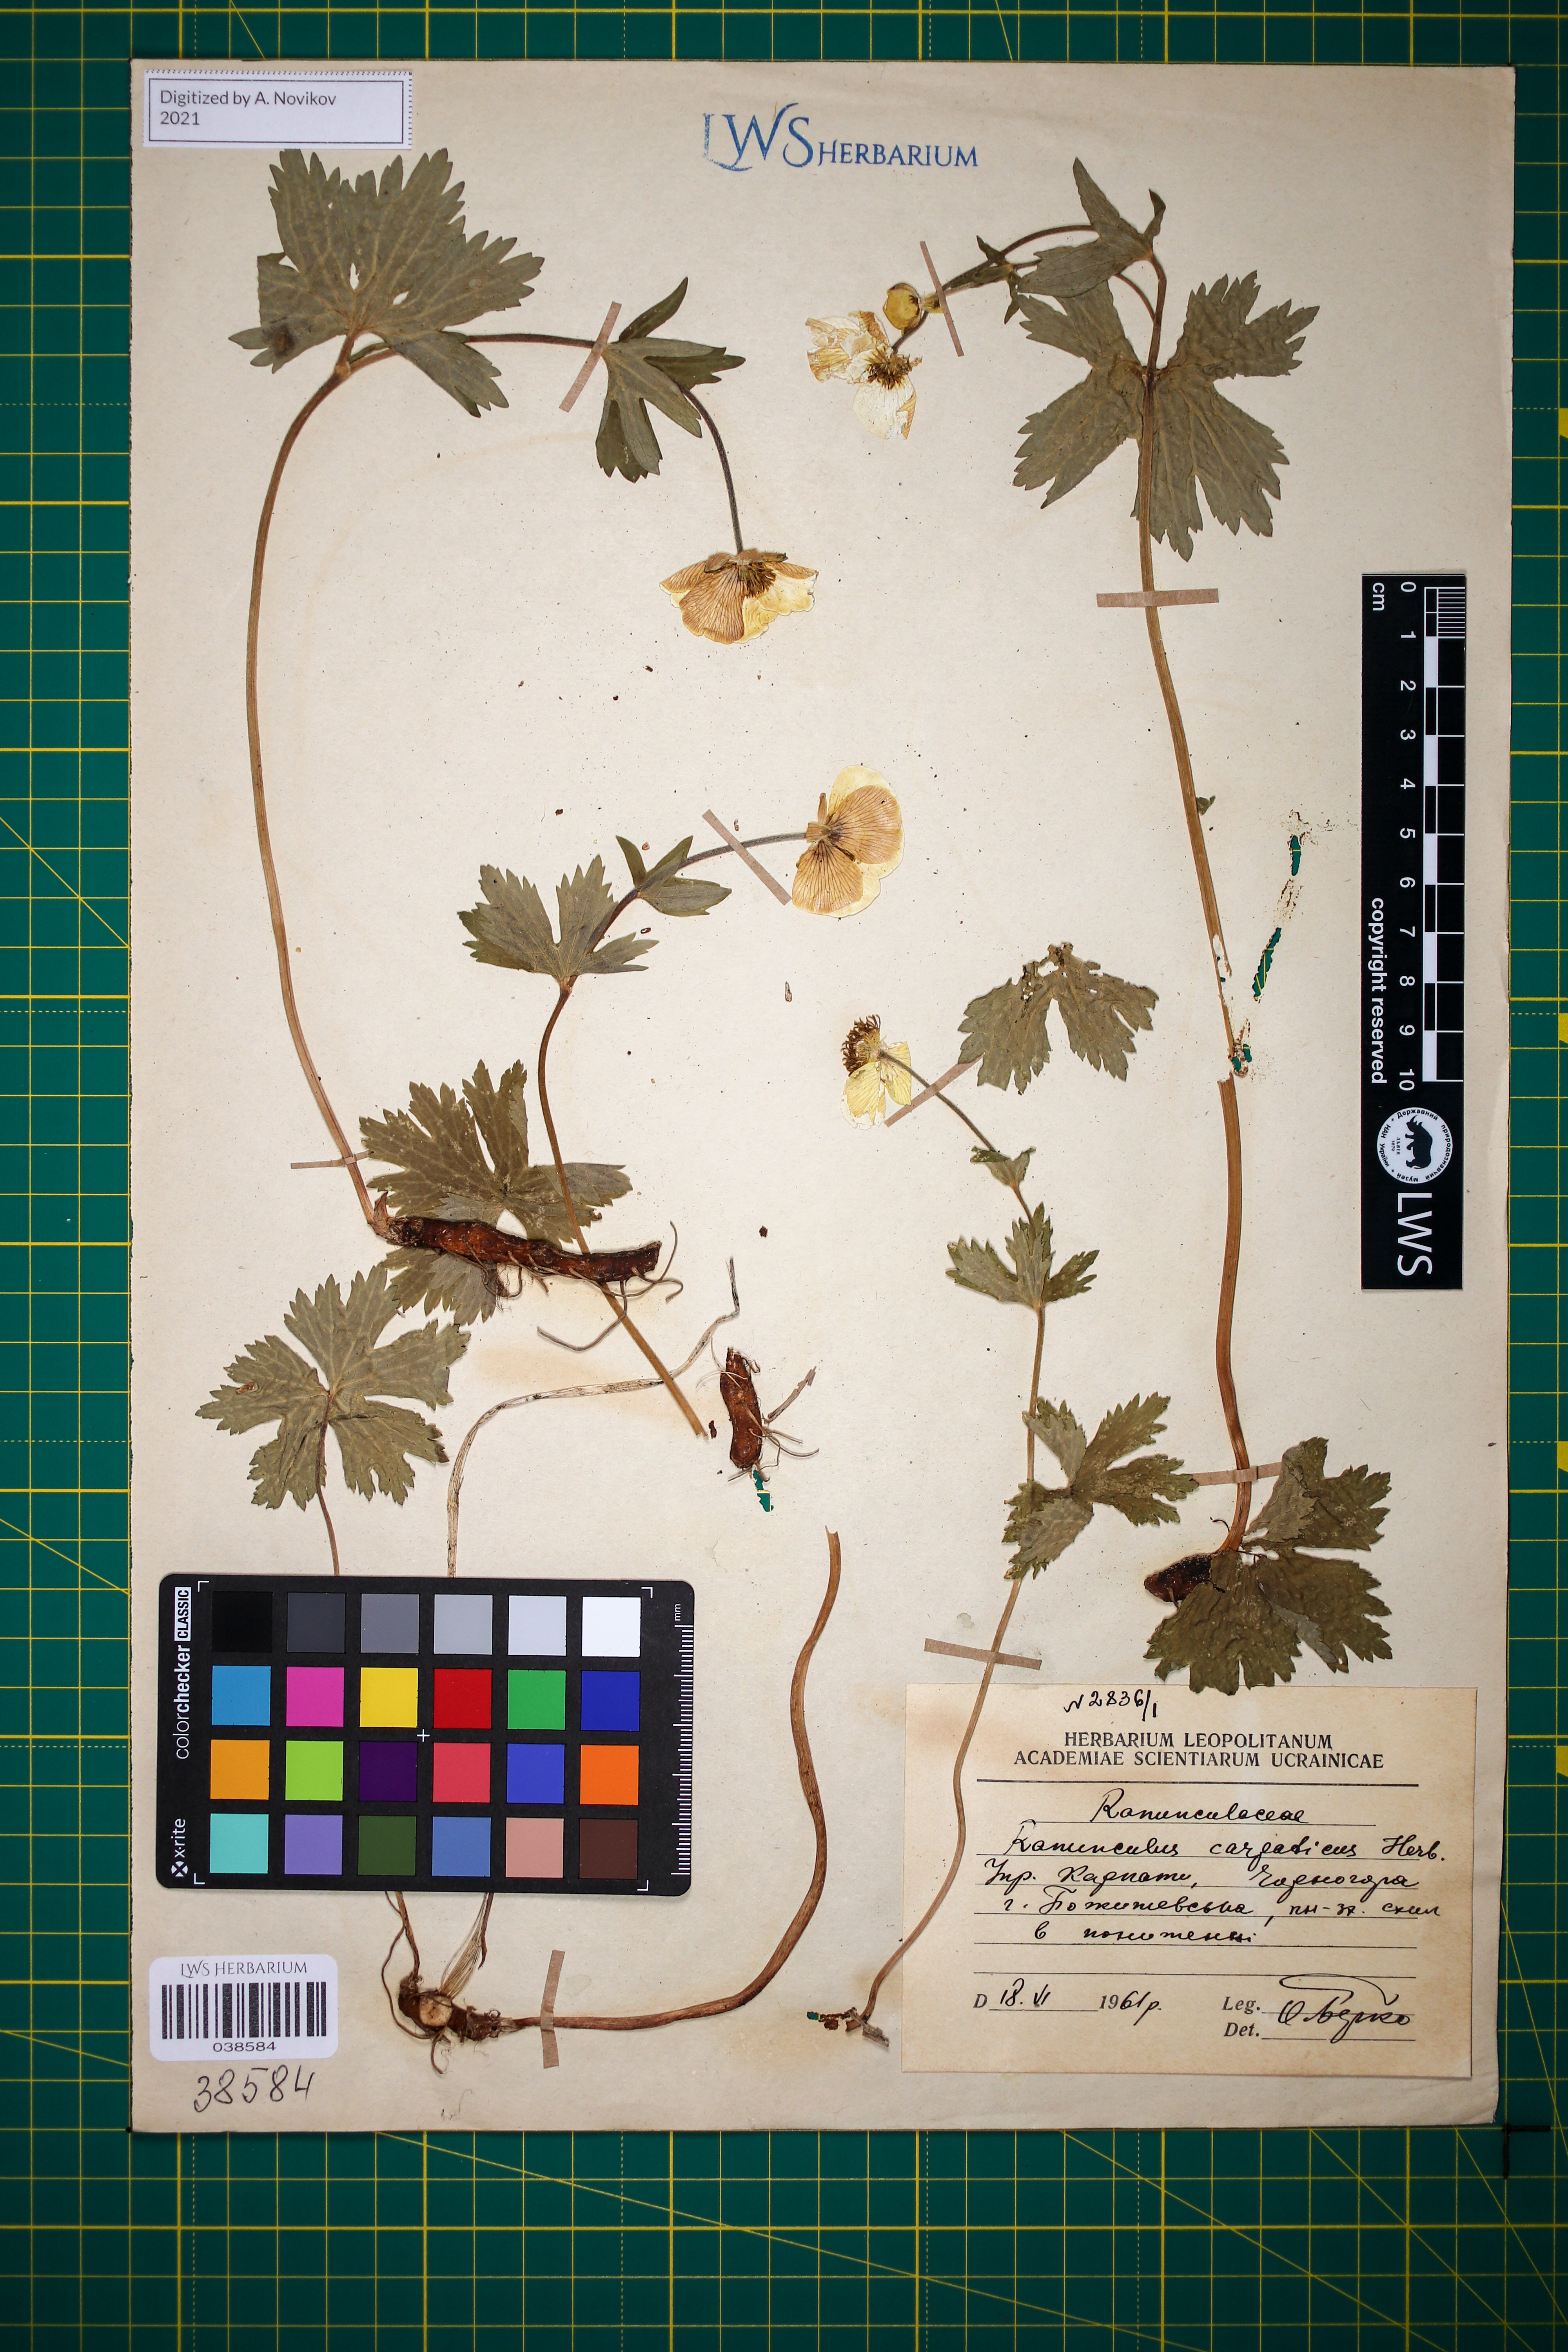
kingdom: Plantae
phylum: Tracheophyta
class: Magnoliopsida
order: Ranunculales
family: Ranunculaceae
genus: Ranunculus
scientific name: Ranunculus carpaticus
